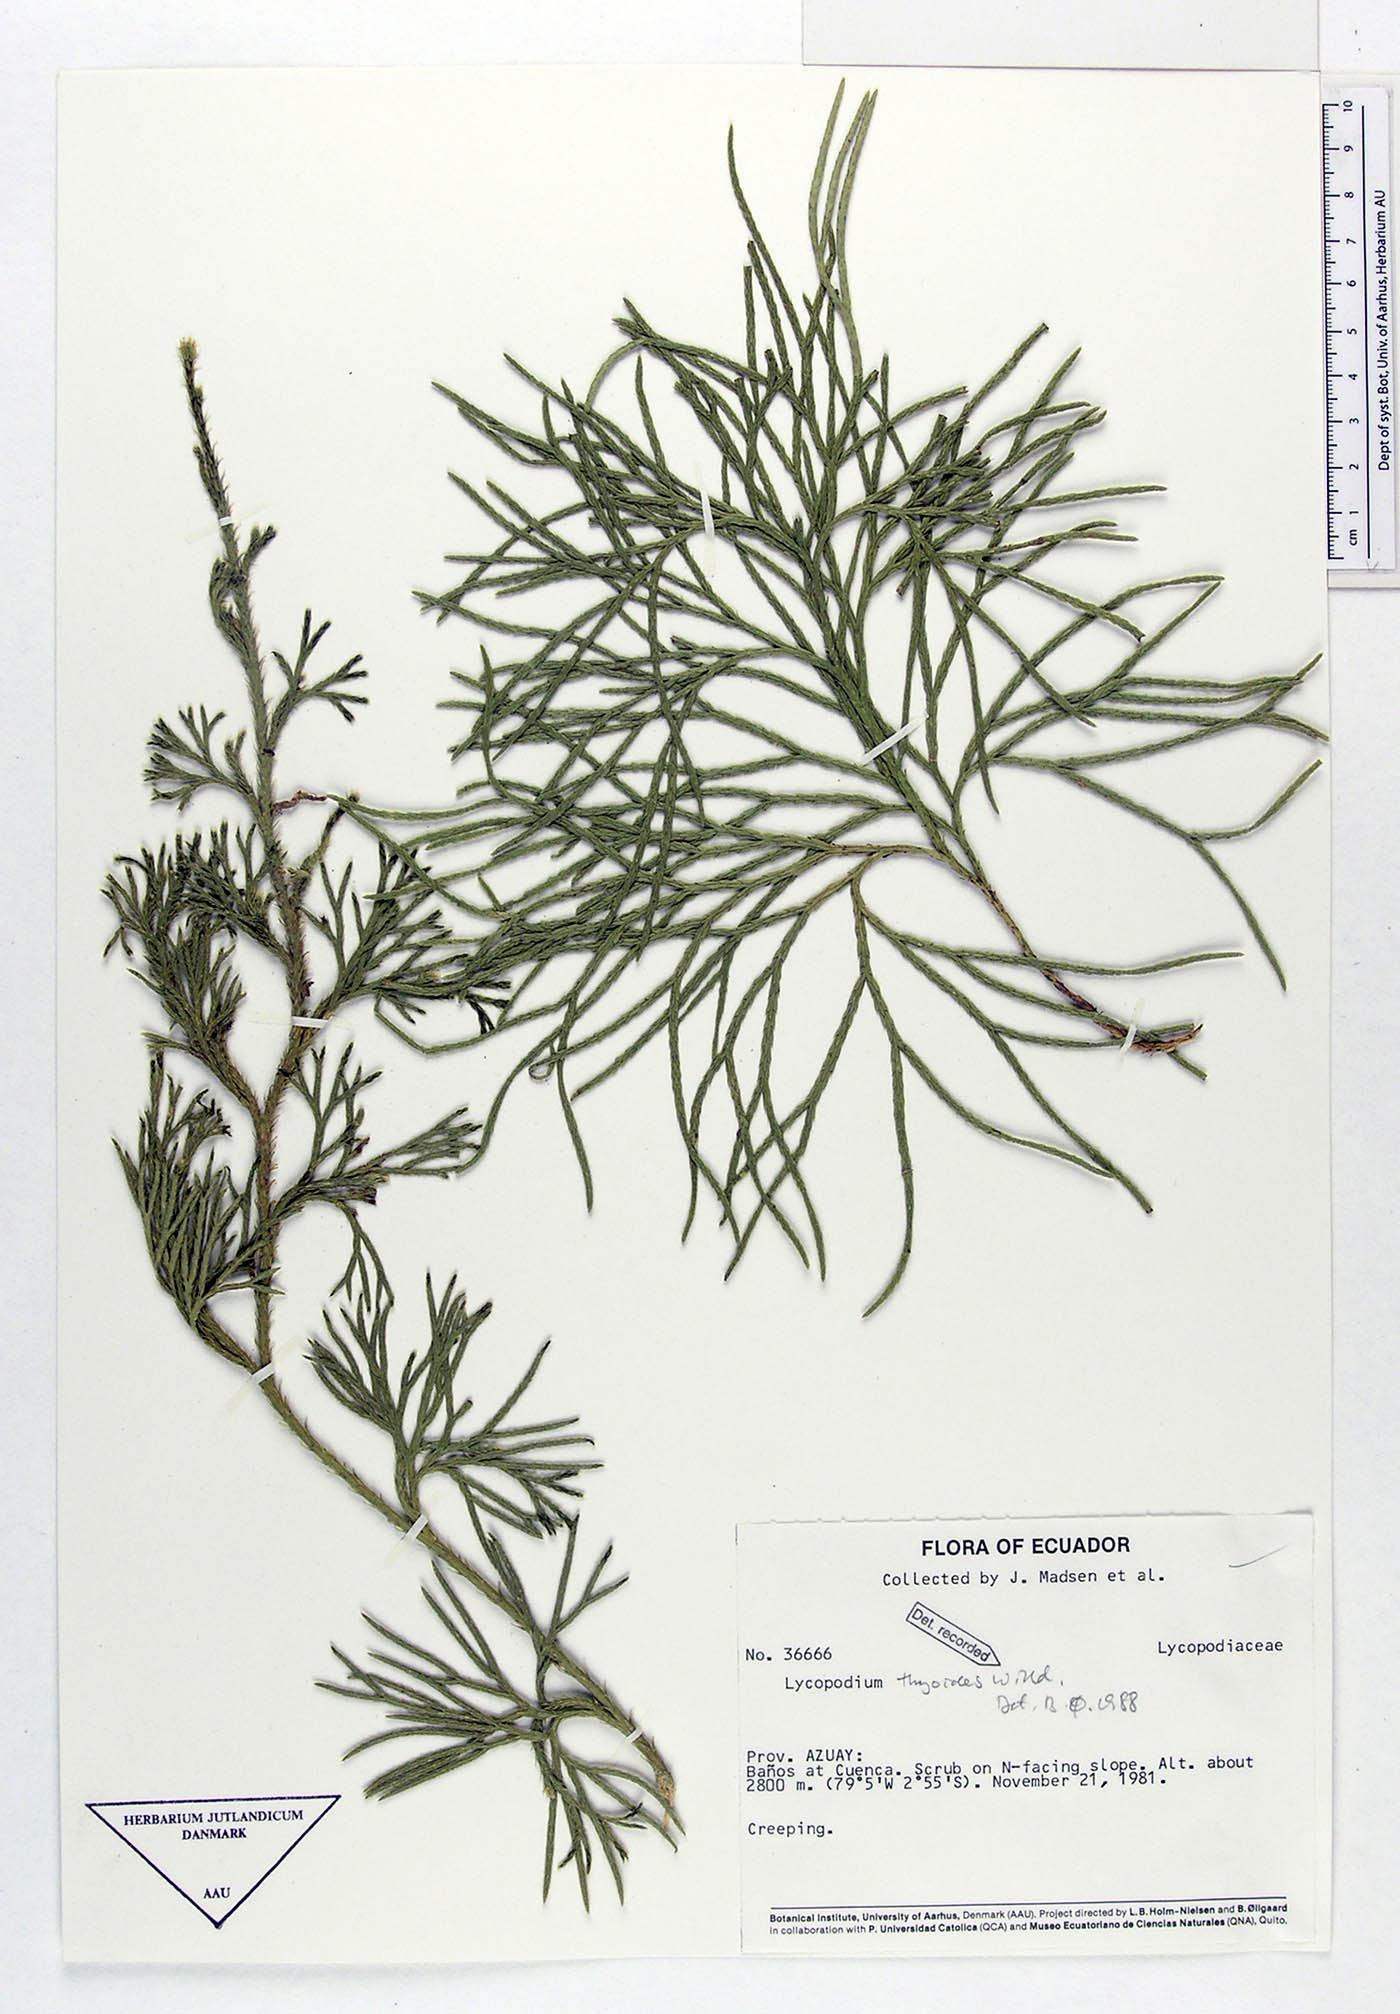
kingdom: Plantae
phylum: Tracheophyta
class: Lycopodiopsida
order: Lycopodiales
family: Lycopodiaceae
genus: Diphasiastrum
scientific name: Diphasiastrum thyoides
